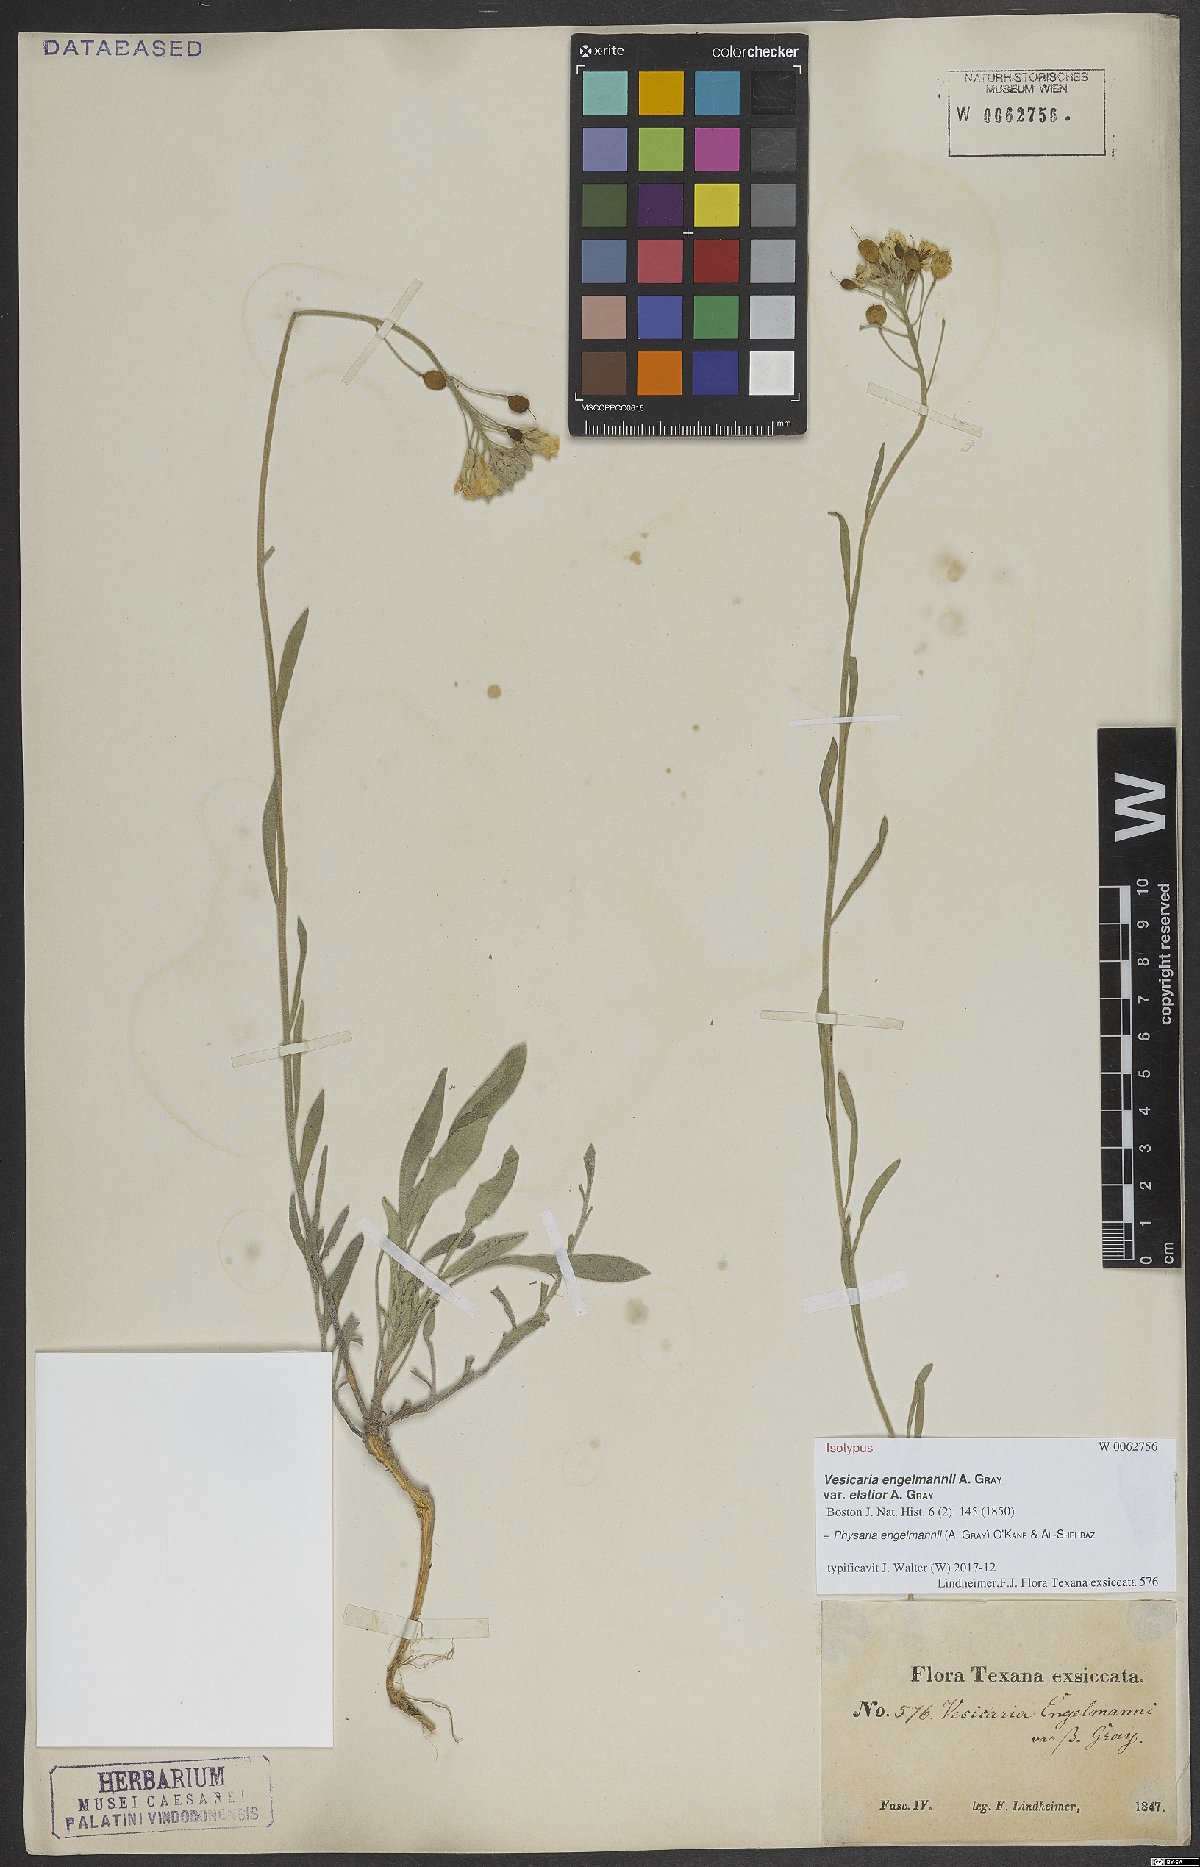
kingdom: Plantae
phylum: Tracheophyta
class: Magnoliopsida
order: Brassicales
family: Brassicaceae
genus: Physaria
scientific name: Physaria engelmannii
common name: Engelmann's bladderpod
